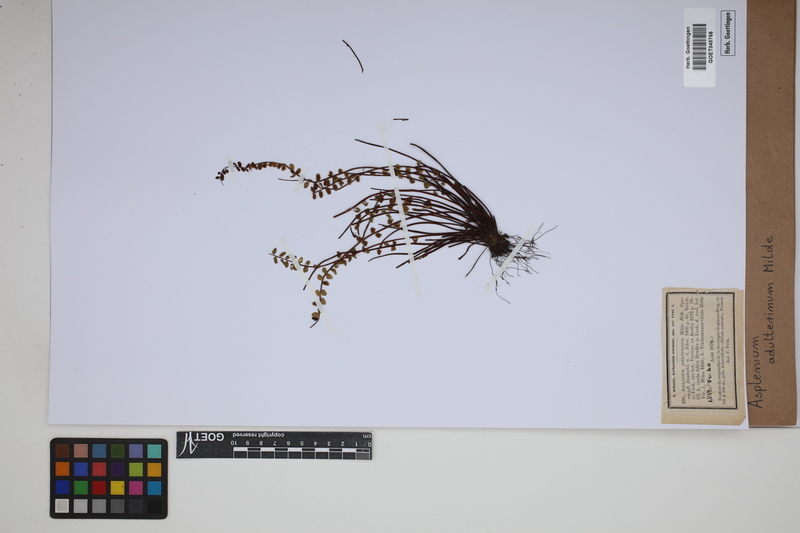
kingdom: Plantae
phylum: Tracheophyta
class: Polypodiopsida
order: Polypodiales
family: Aspleniaceae
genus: Asplenium
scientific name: Asplenium adulterinum
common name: Adulterated spleenwort
